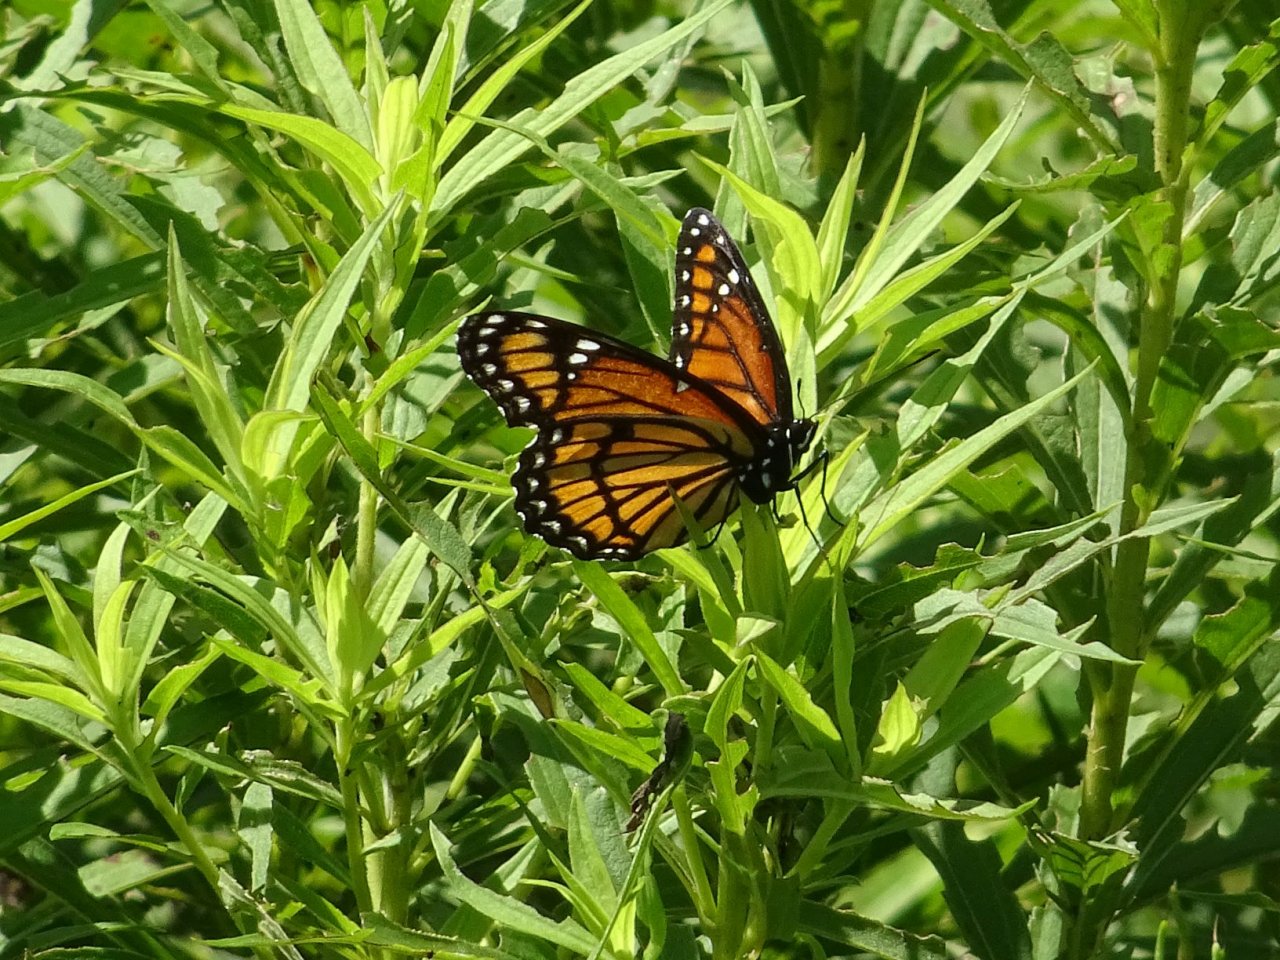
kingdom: Animalia
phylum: Arthropoda
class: Insecta
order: Lepidoptera
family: Nymphalidae
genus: Limenitis
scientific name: Limenitis archippus
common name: Viceroy
